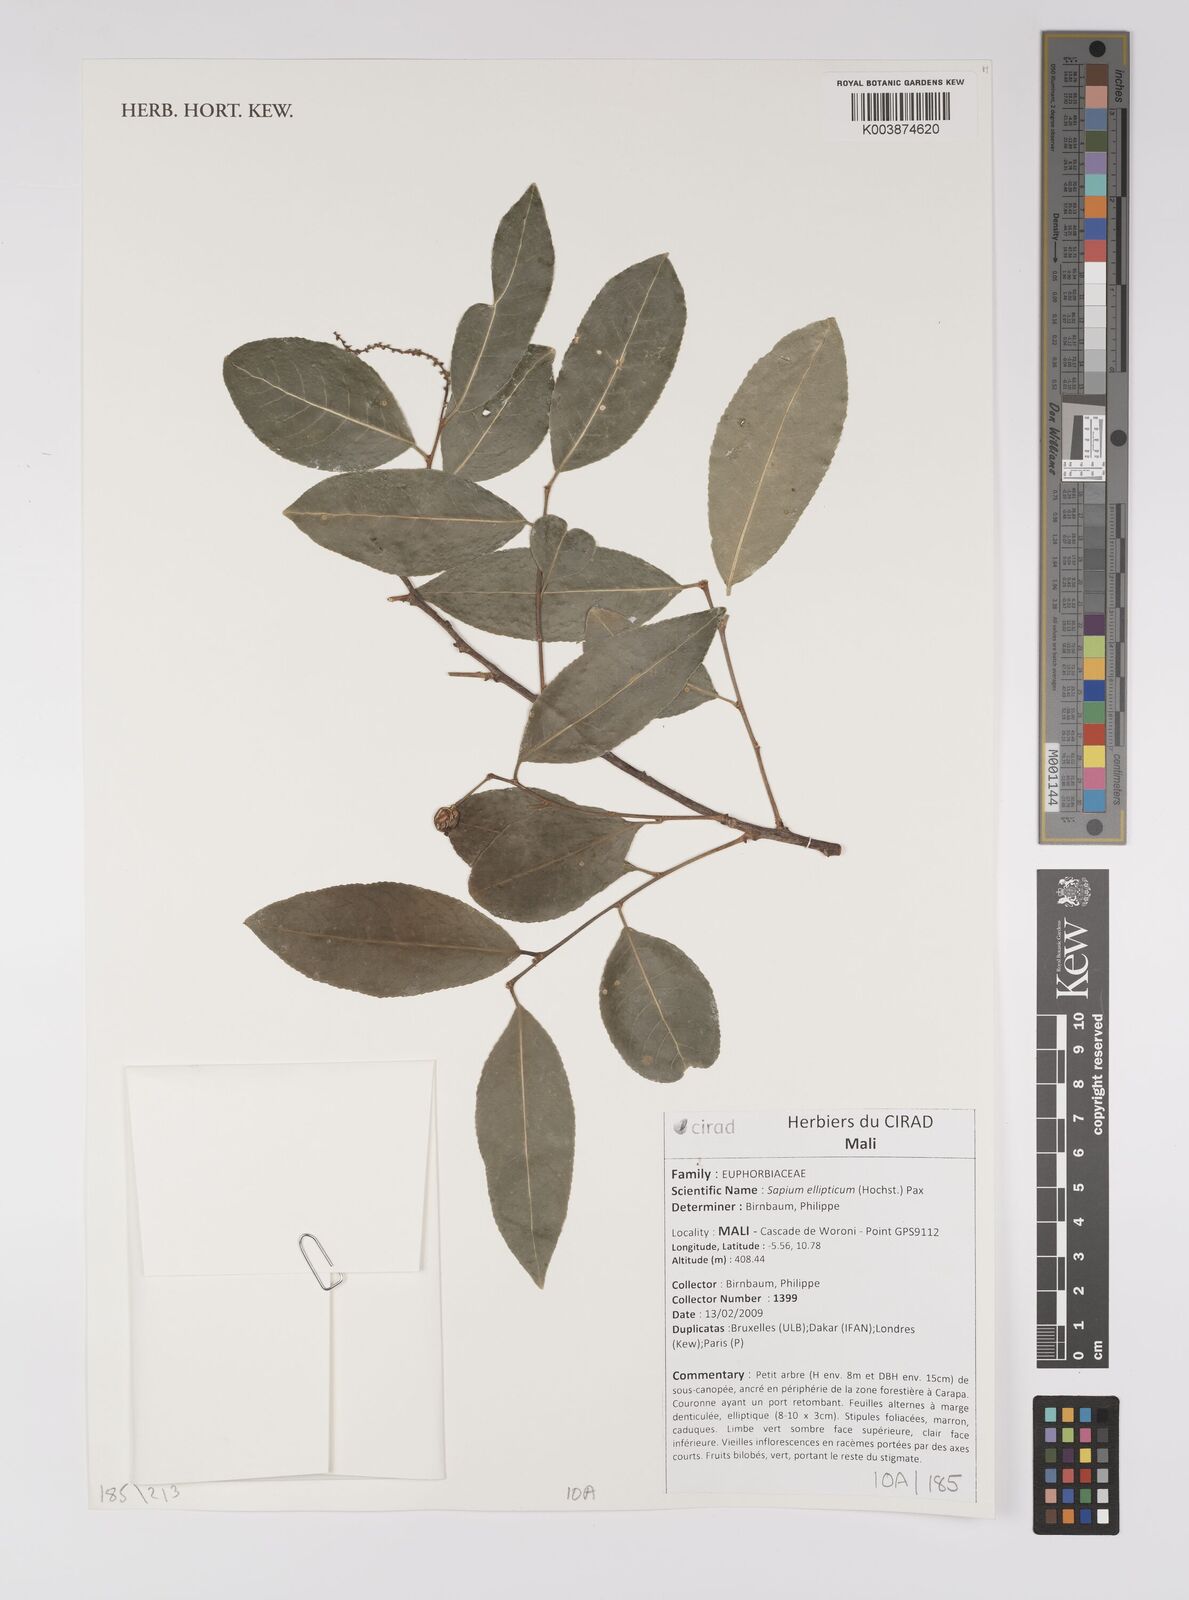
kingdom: Plantae
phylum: Tracheophyta
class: Magnoliopsida
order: Malpighiales
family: Euphorbiaceae
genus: Shirakiopsis
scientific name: Shirakiopsis elliptica
